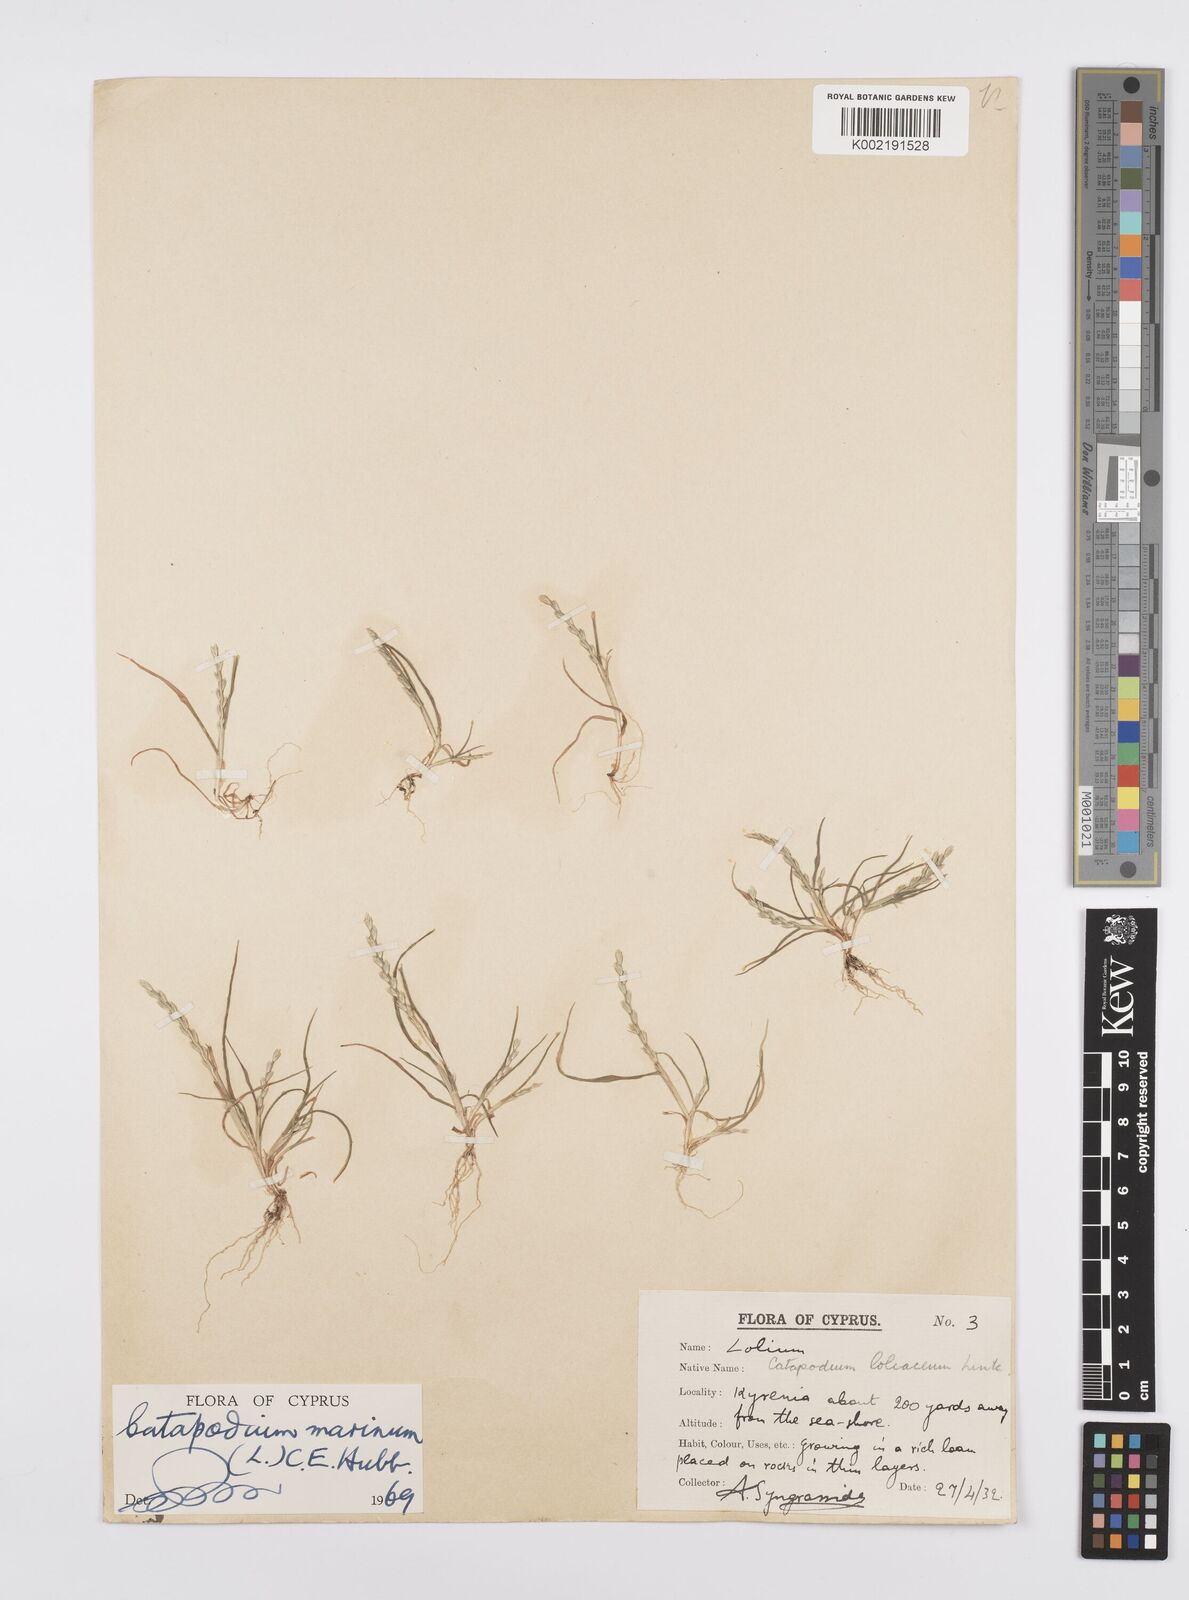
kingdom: Plantae
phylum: Tracheophyta
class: Liliopsida
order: Poales
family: Poaceae
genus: Catapodium
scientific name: Catapodium marinum
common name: Sea fern-grass
